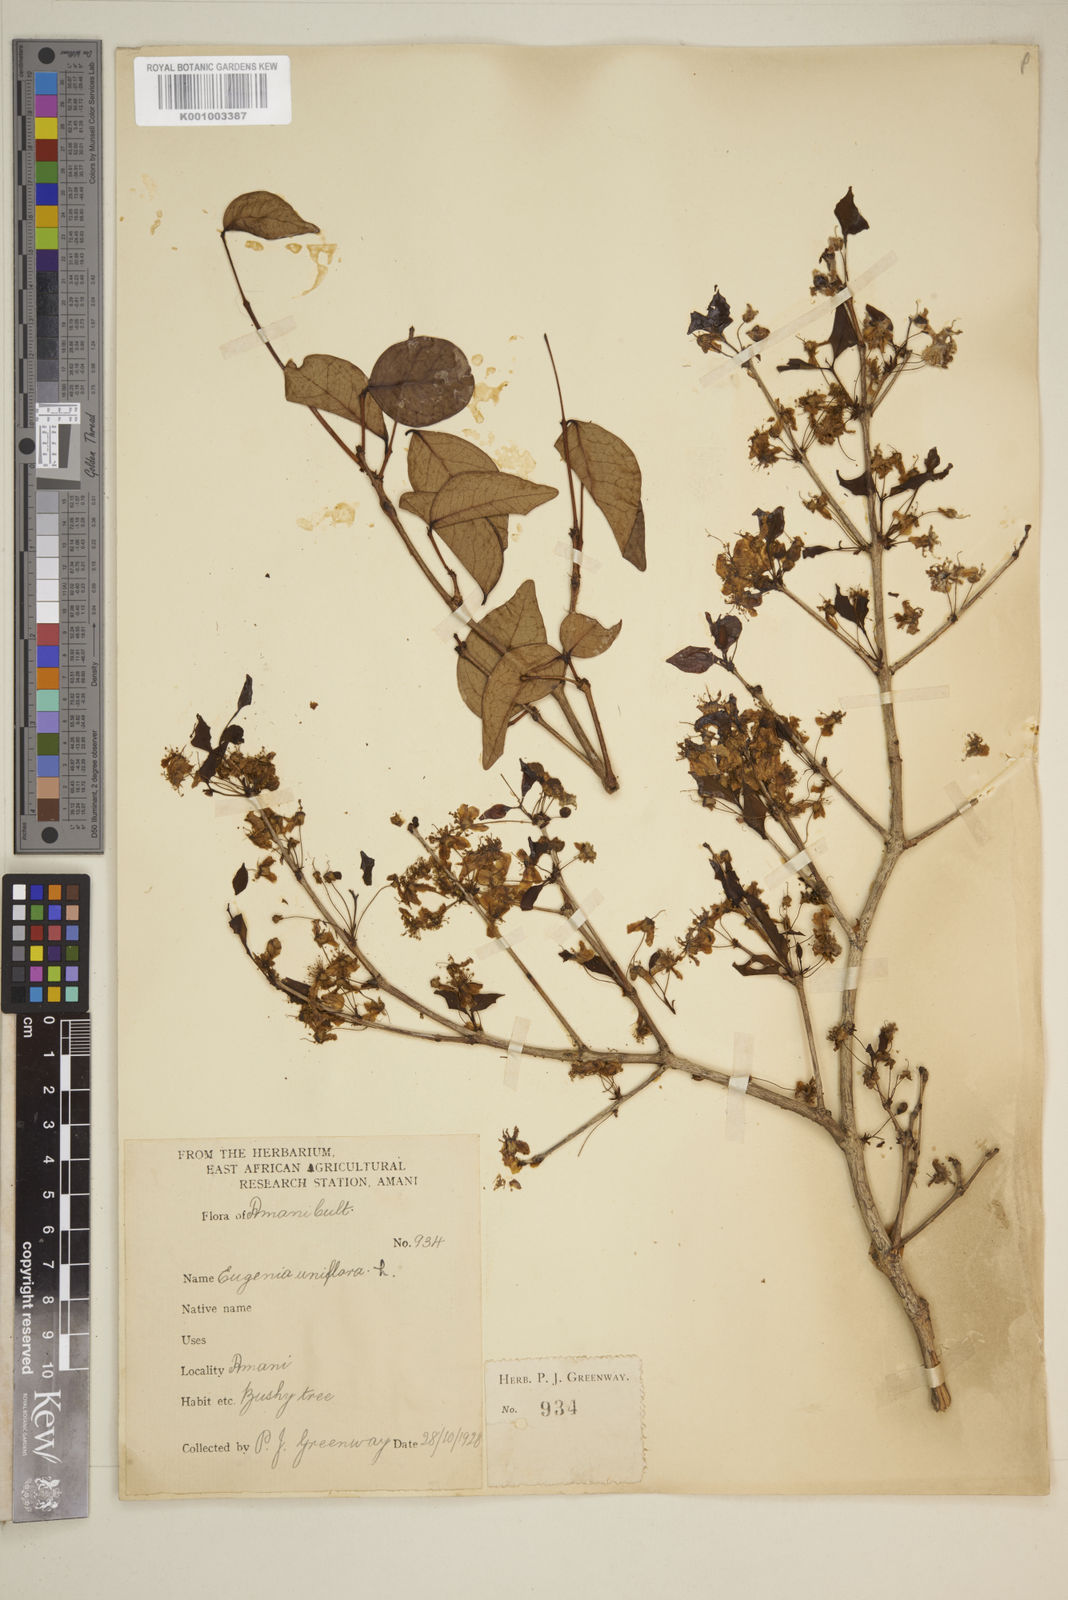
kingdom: Plantae
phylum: Tracheophyta
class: Magnoliopsida
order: Myrtales
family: Myrtaceae
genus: Eugenia
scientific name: Eugenia uniflora
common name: Surinam cherry
